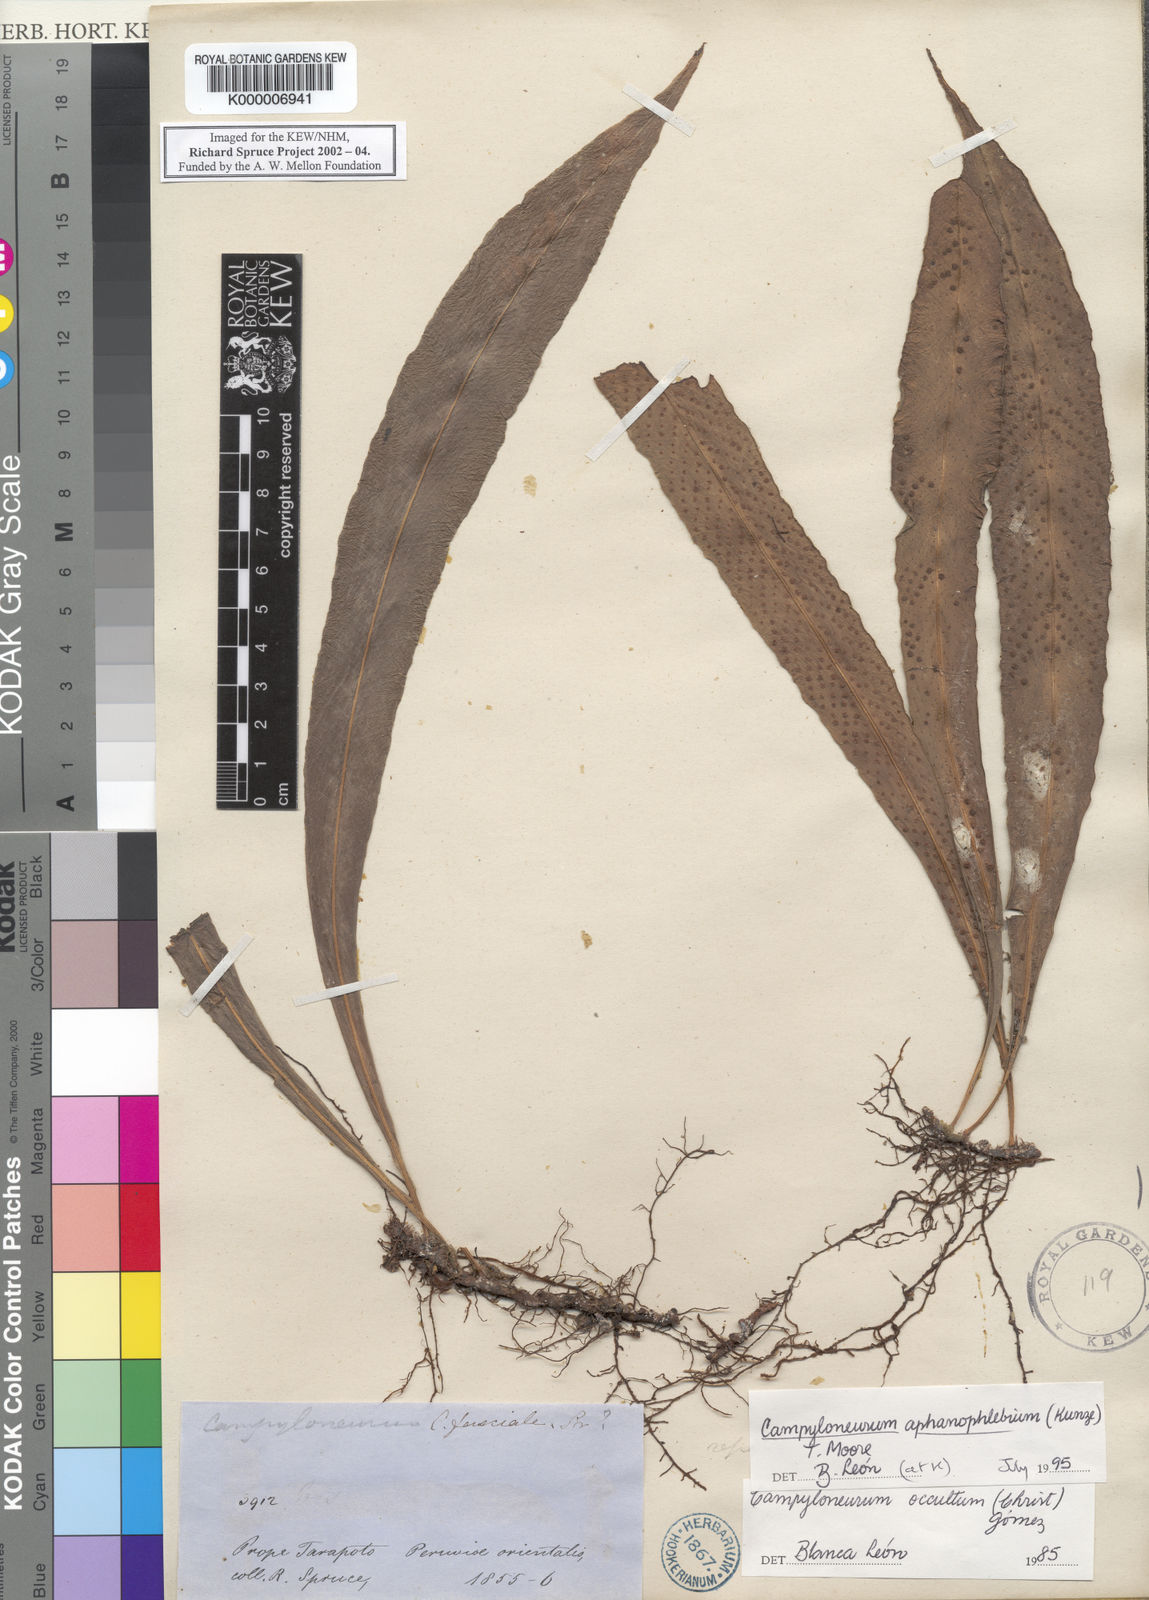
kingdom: Plantae
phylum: Tracheophyta
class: Polypodiopsida
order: Polypodiales
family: Polypodiaceae
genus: Campyloneurum
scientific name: Campyloneurum aphanophlebium
